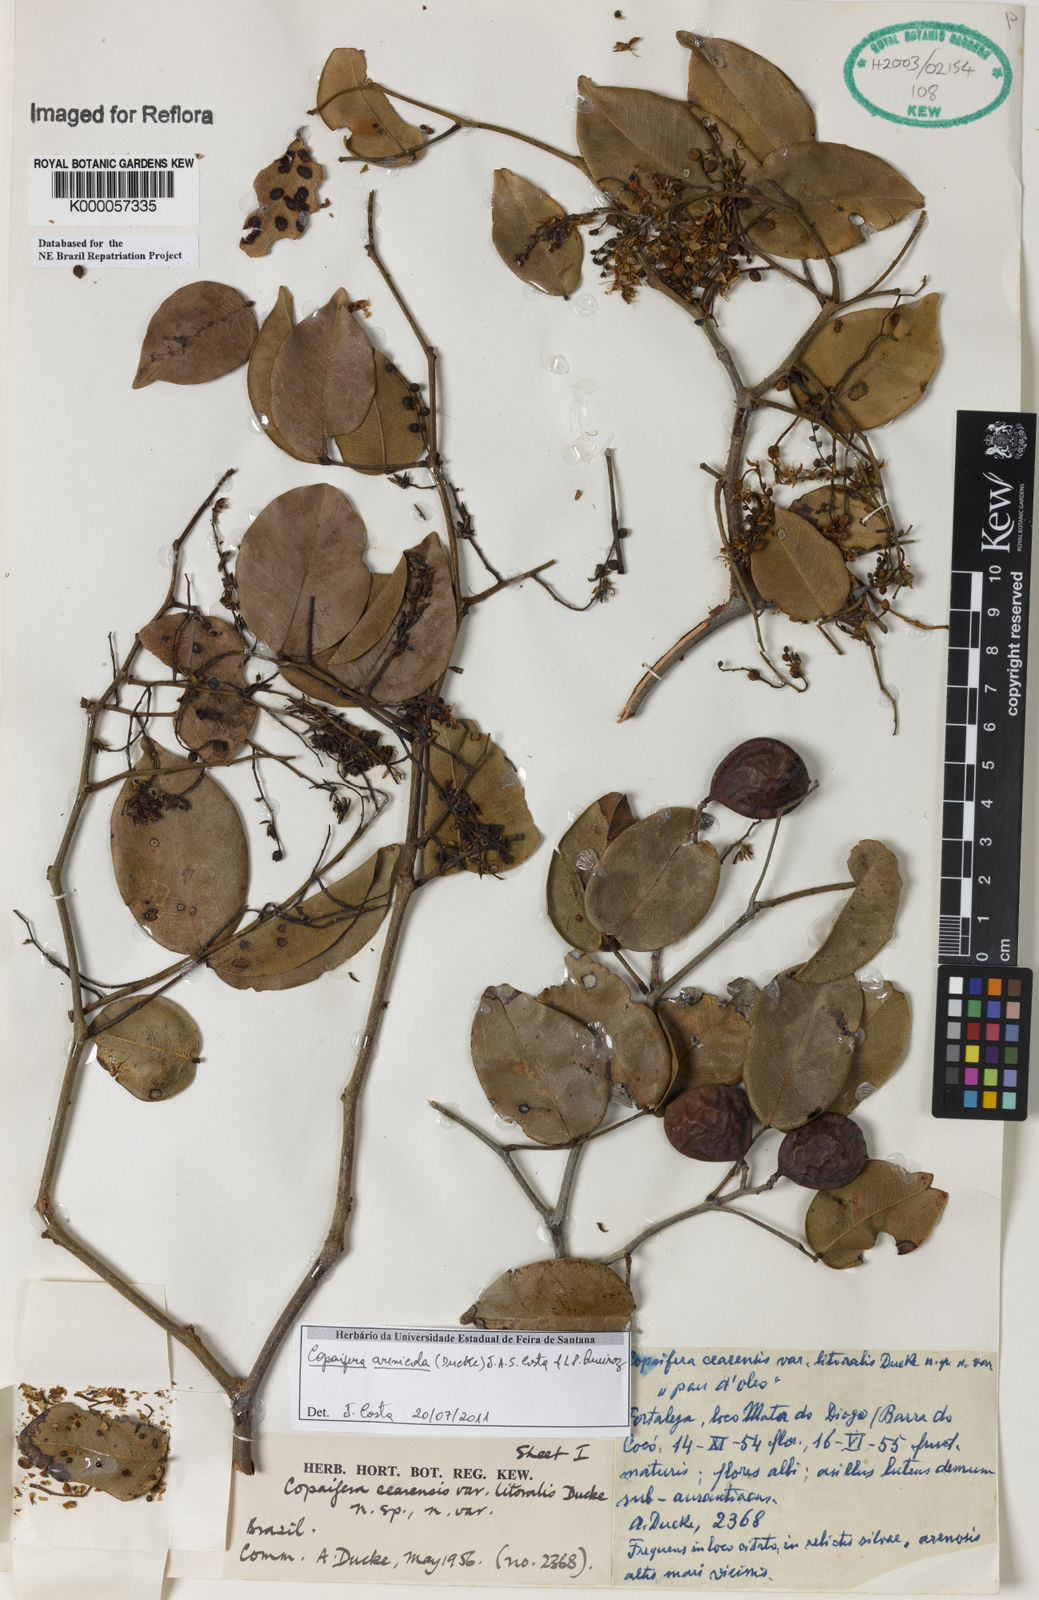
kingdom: Plantae
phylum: Tracheophyta
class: Magnoliopsida
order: Fabales
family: Fabaceae
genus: Copaifera
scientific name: Copaifera
